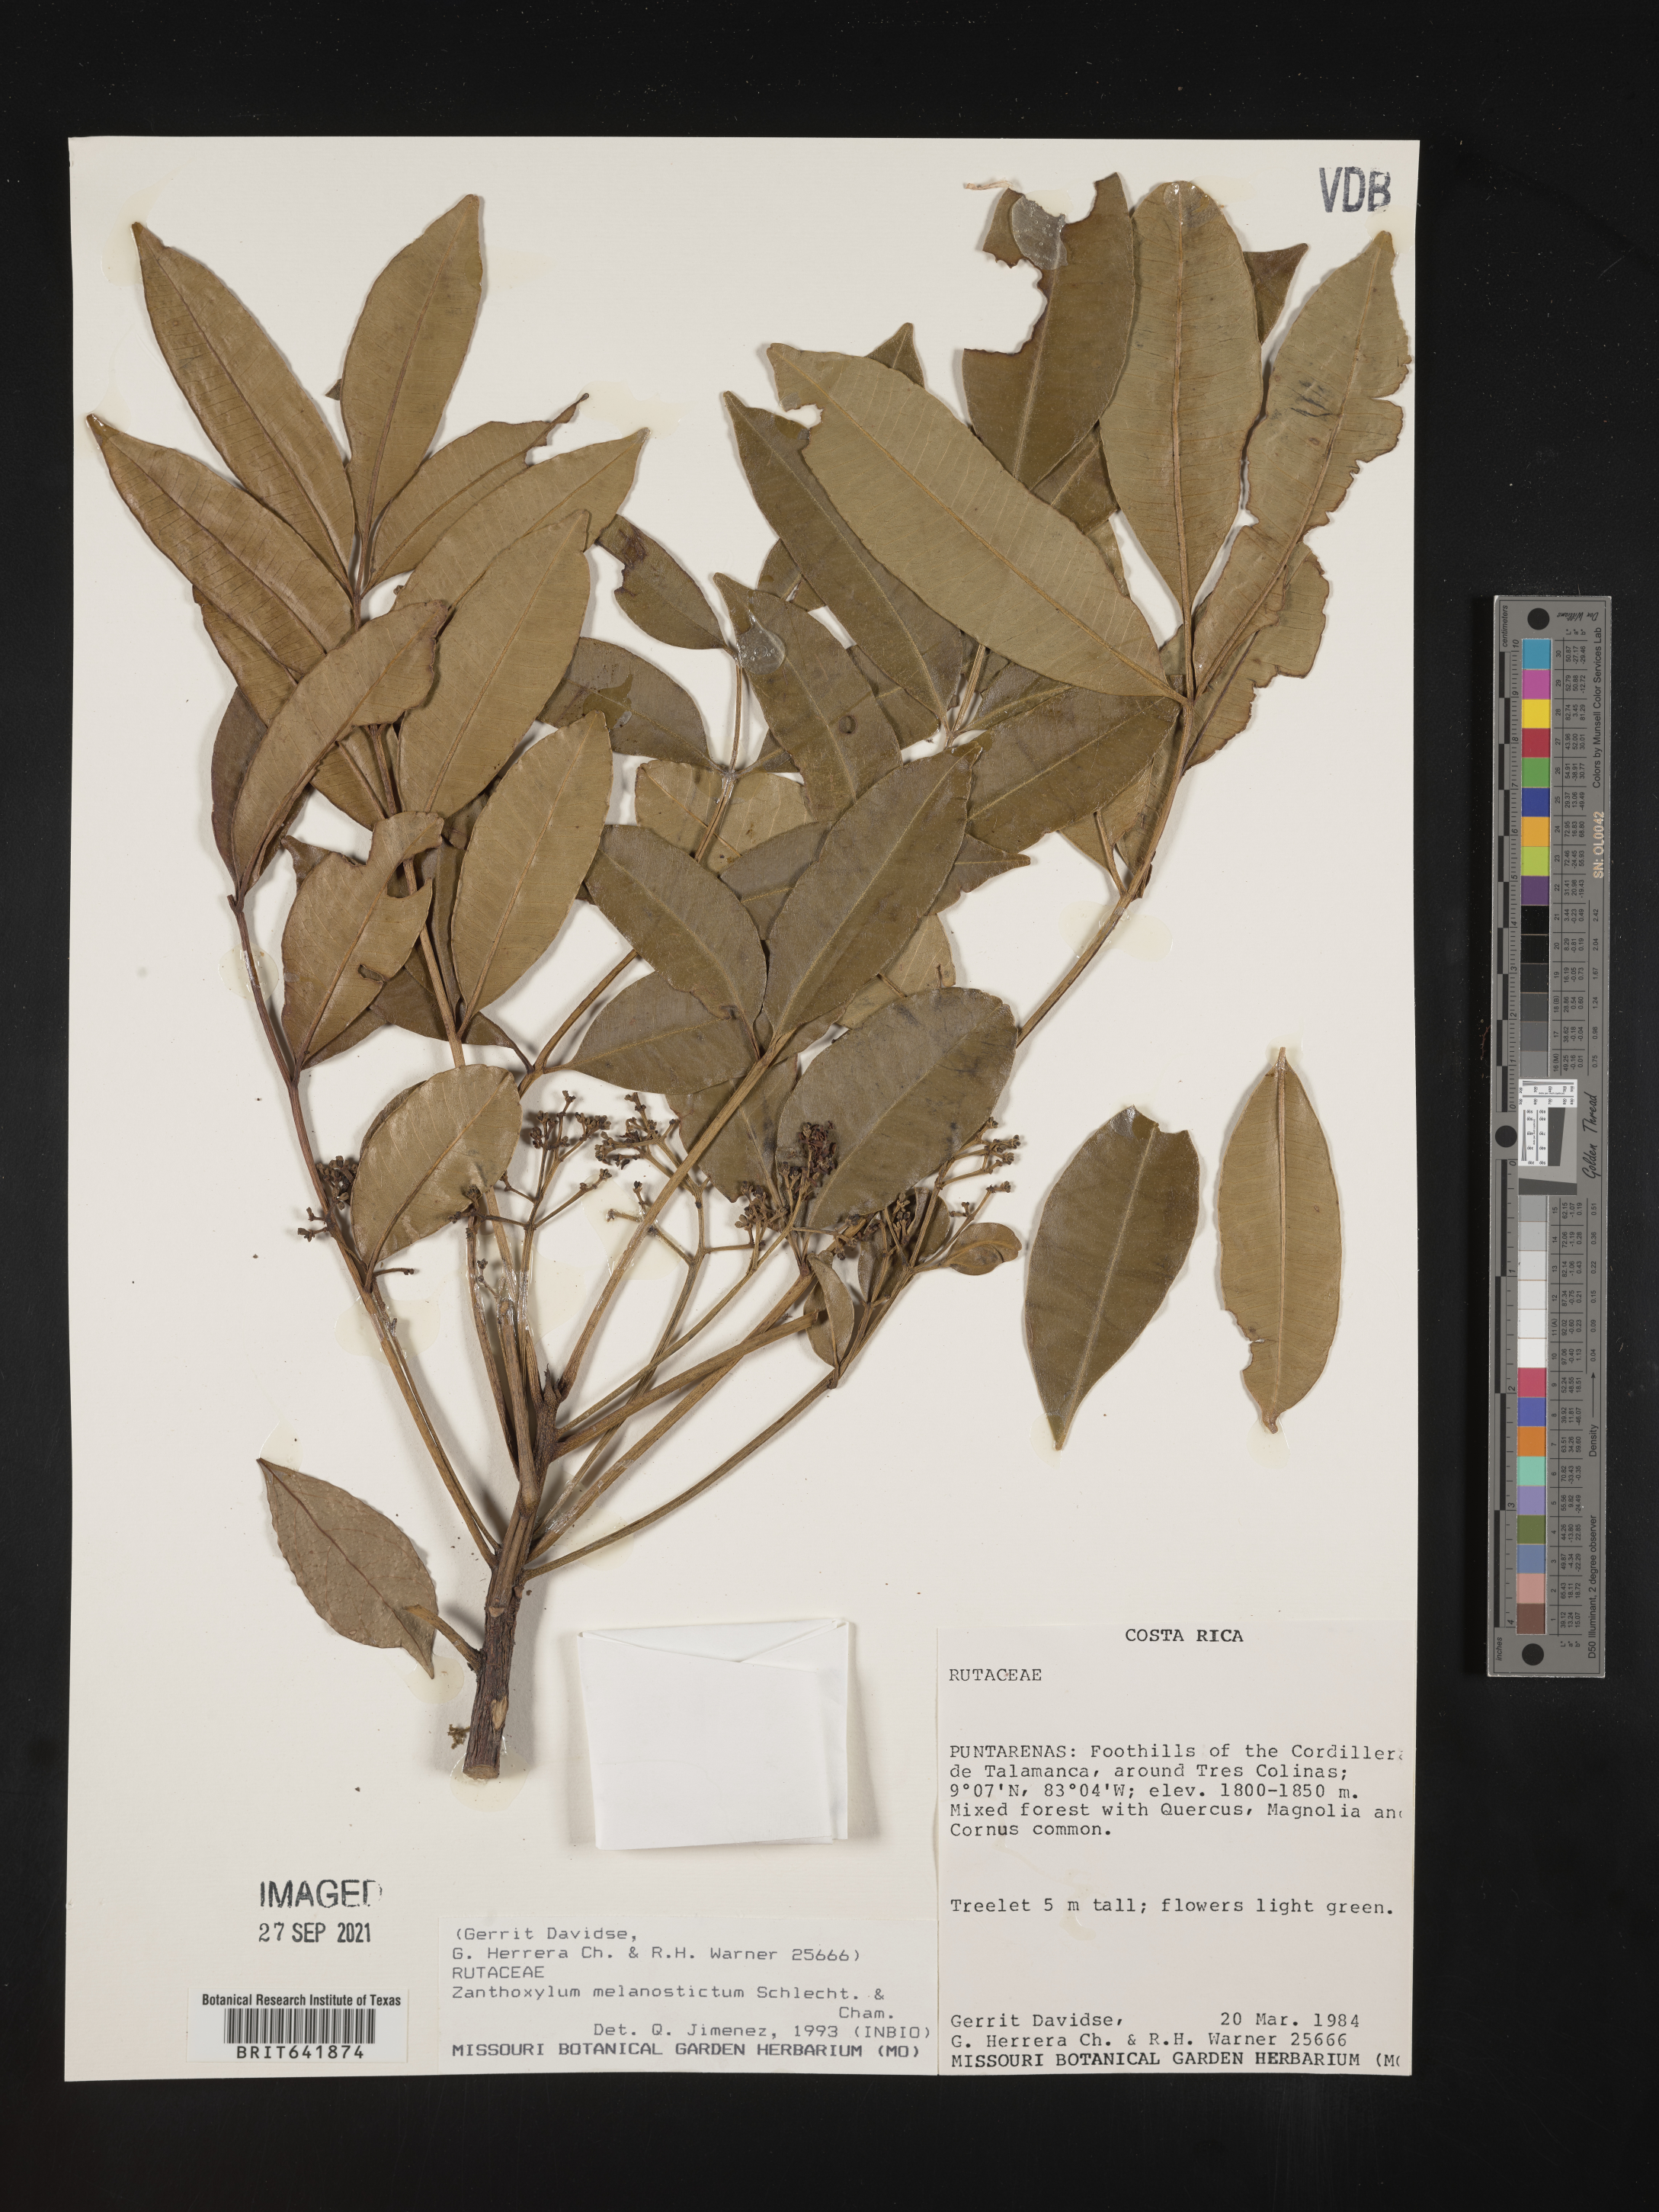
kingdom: Plantae
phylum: Tracheophyta
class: Magnoliopsida
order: Sapindales
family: Rutaceae
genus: Zanthoxylum
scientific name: Zanthoxylum
